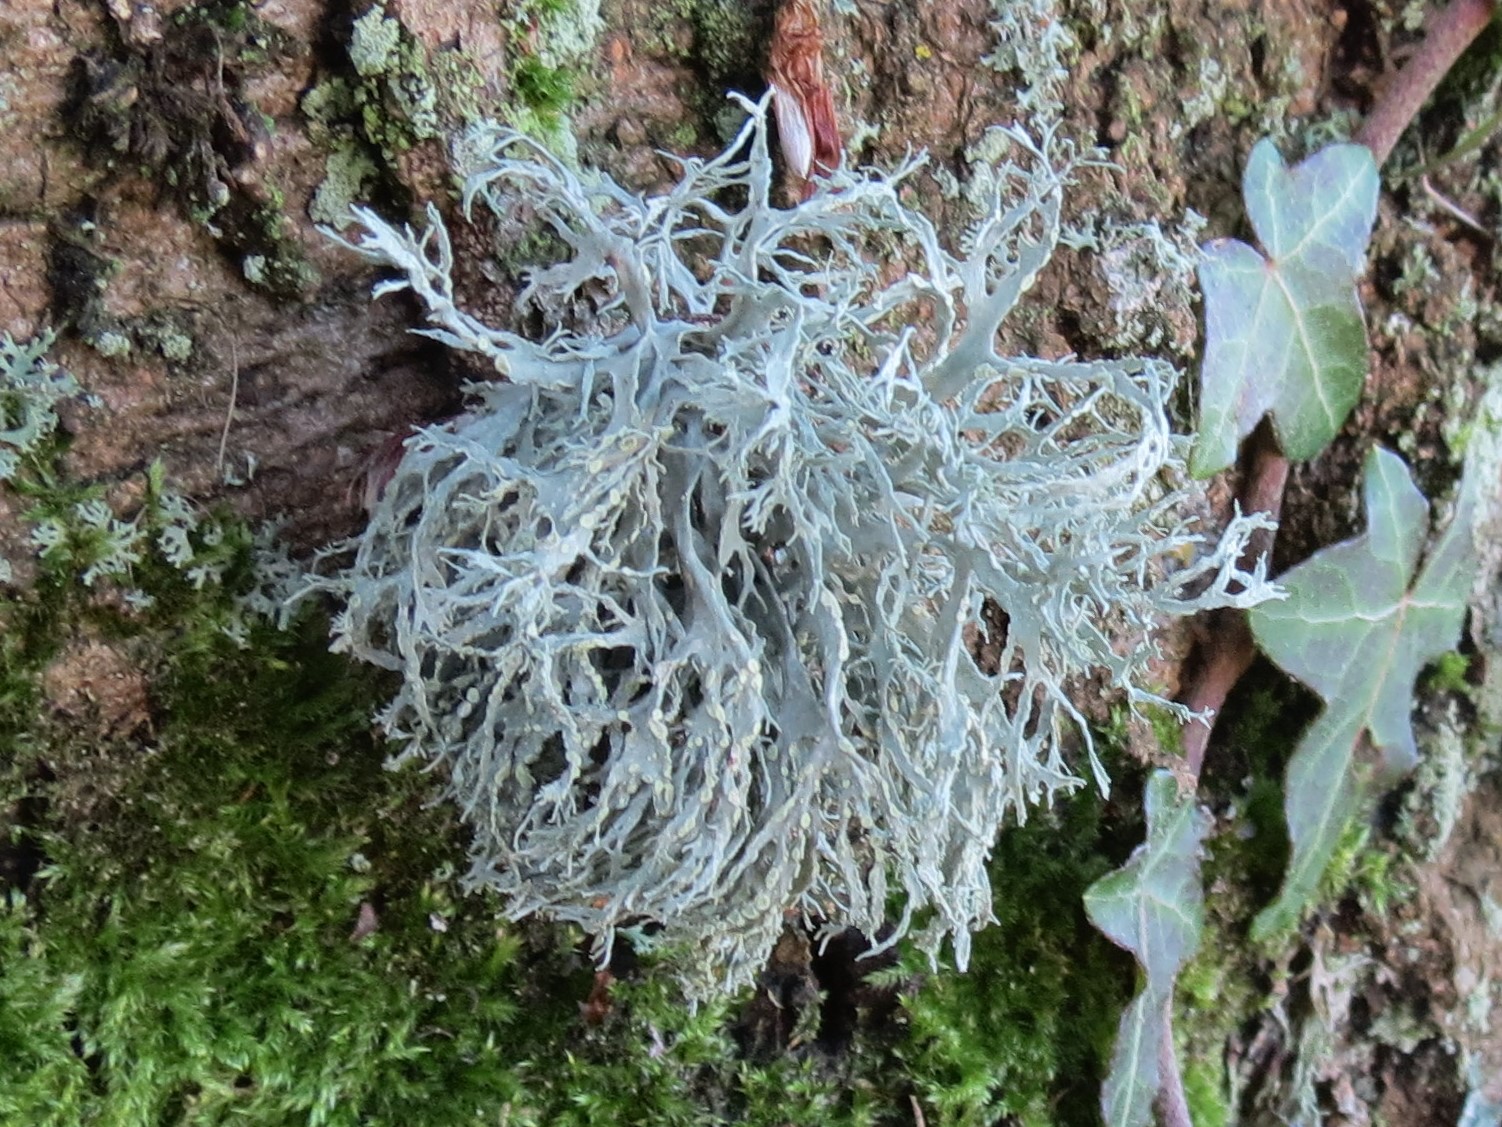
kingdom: Fungi
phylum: Ascomycota
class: Lecanoromycetes
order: Lecanorales
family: Ramalinaceae
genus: Ramalina
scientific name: Ramalina farinacea
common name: melet grenlav
